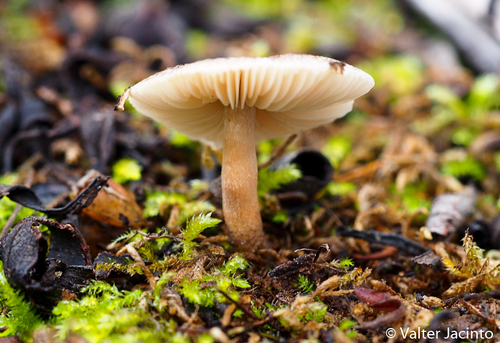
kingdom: Fungi
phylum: Basidiomycota
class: Agaricomycetes
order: Agaricales
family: Agaricaceae
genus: Lepiota
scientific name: Lepiota
